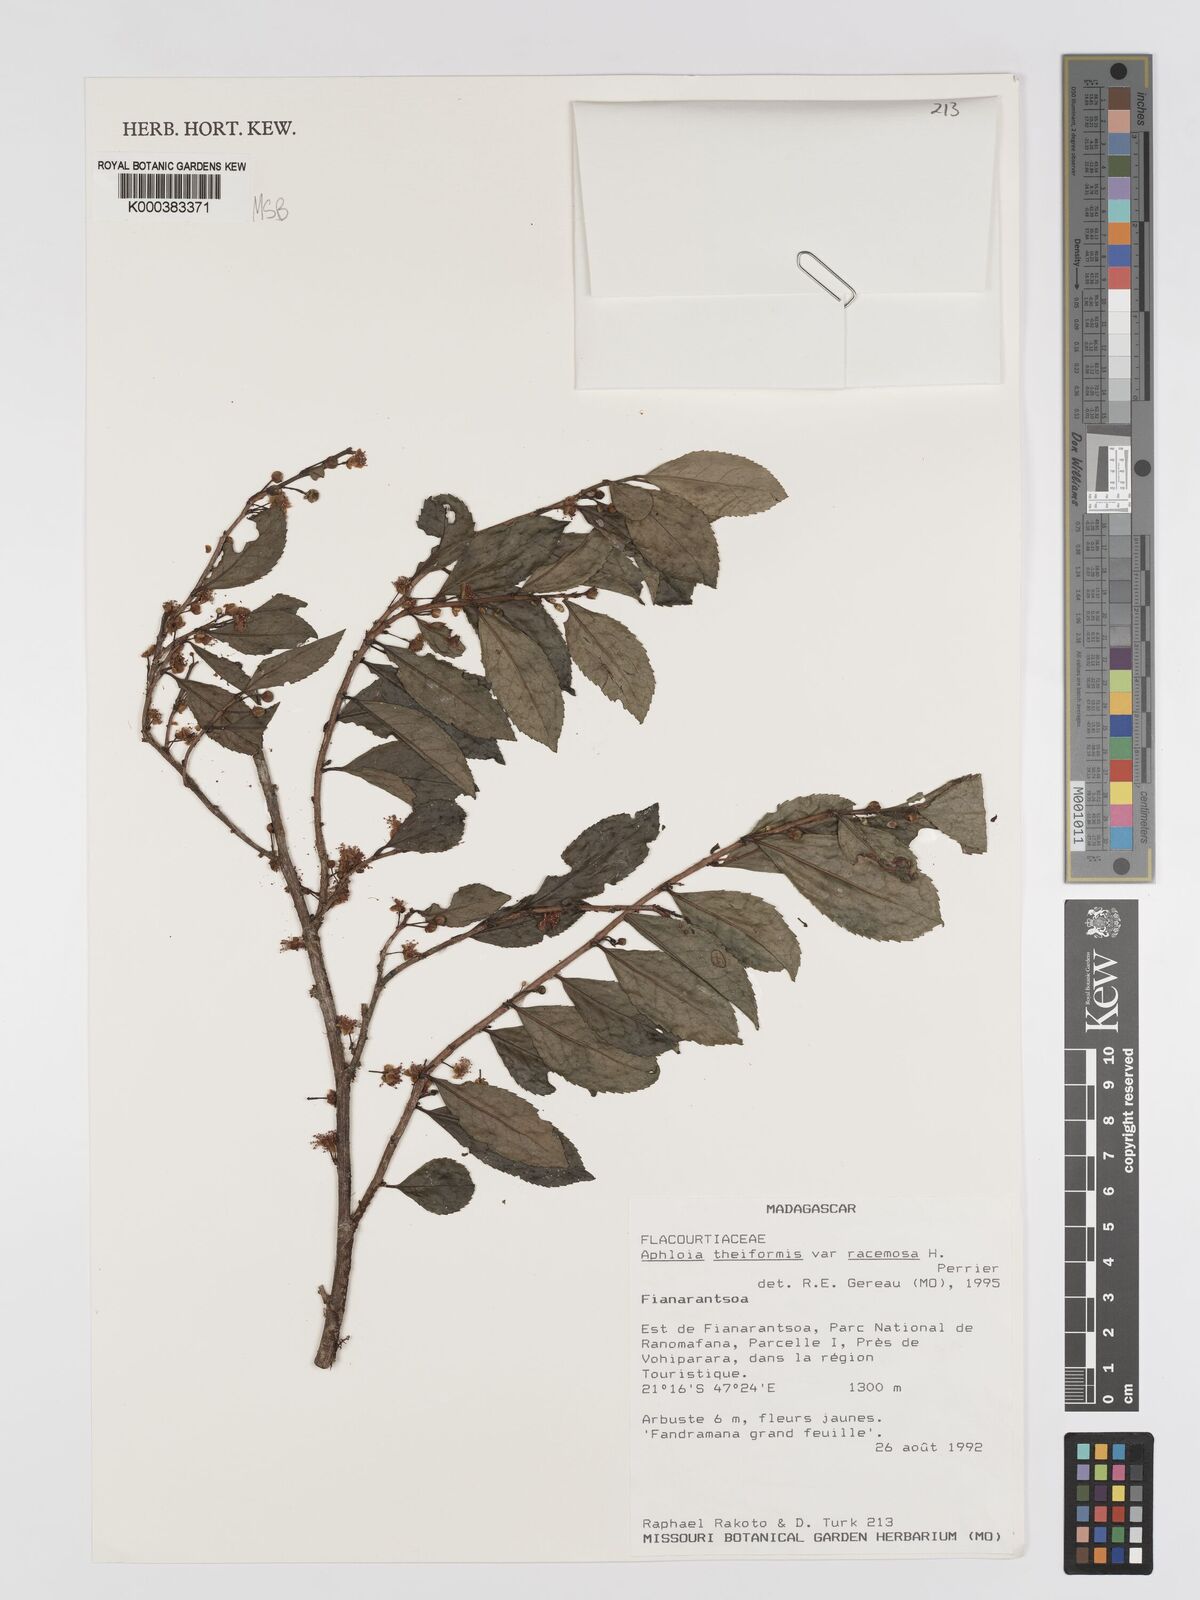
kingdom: Plantae
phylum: Tracheophyta
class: Magnoliopsida
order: Crossosomatales
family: Aphloiaceae
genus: Aphloia
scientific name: Aphloia theiformis
